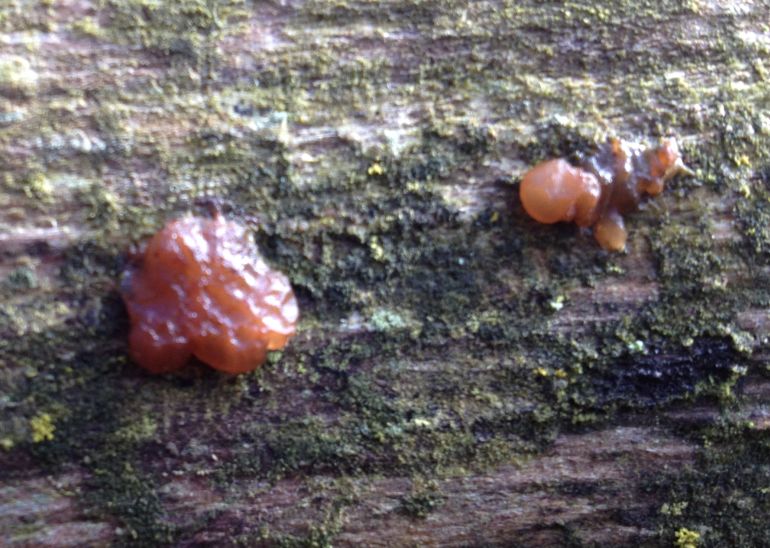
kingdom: Fungi
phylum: Basidiomycota
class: Agaricomycetes
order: Auriculariales
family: Auriculariaceae
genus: Exidia
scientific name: Exidia saccharina
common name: kandis-bævretop
